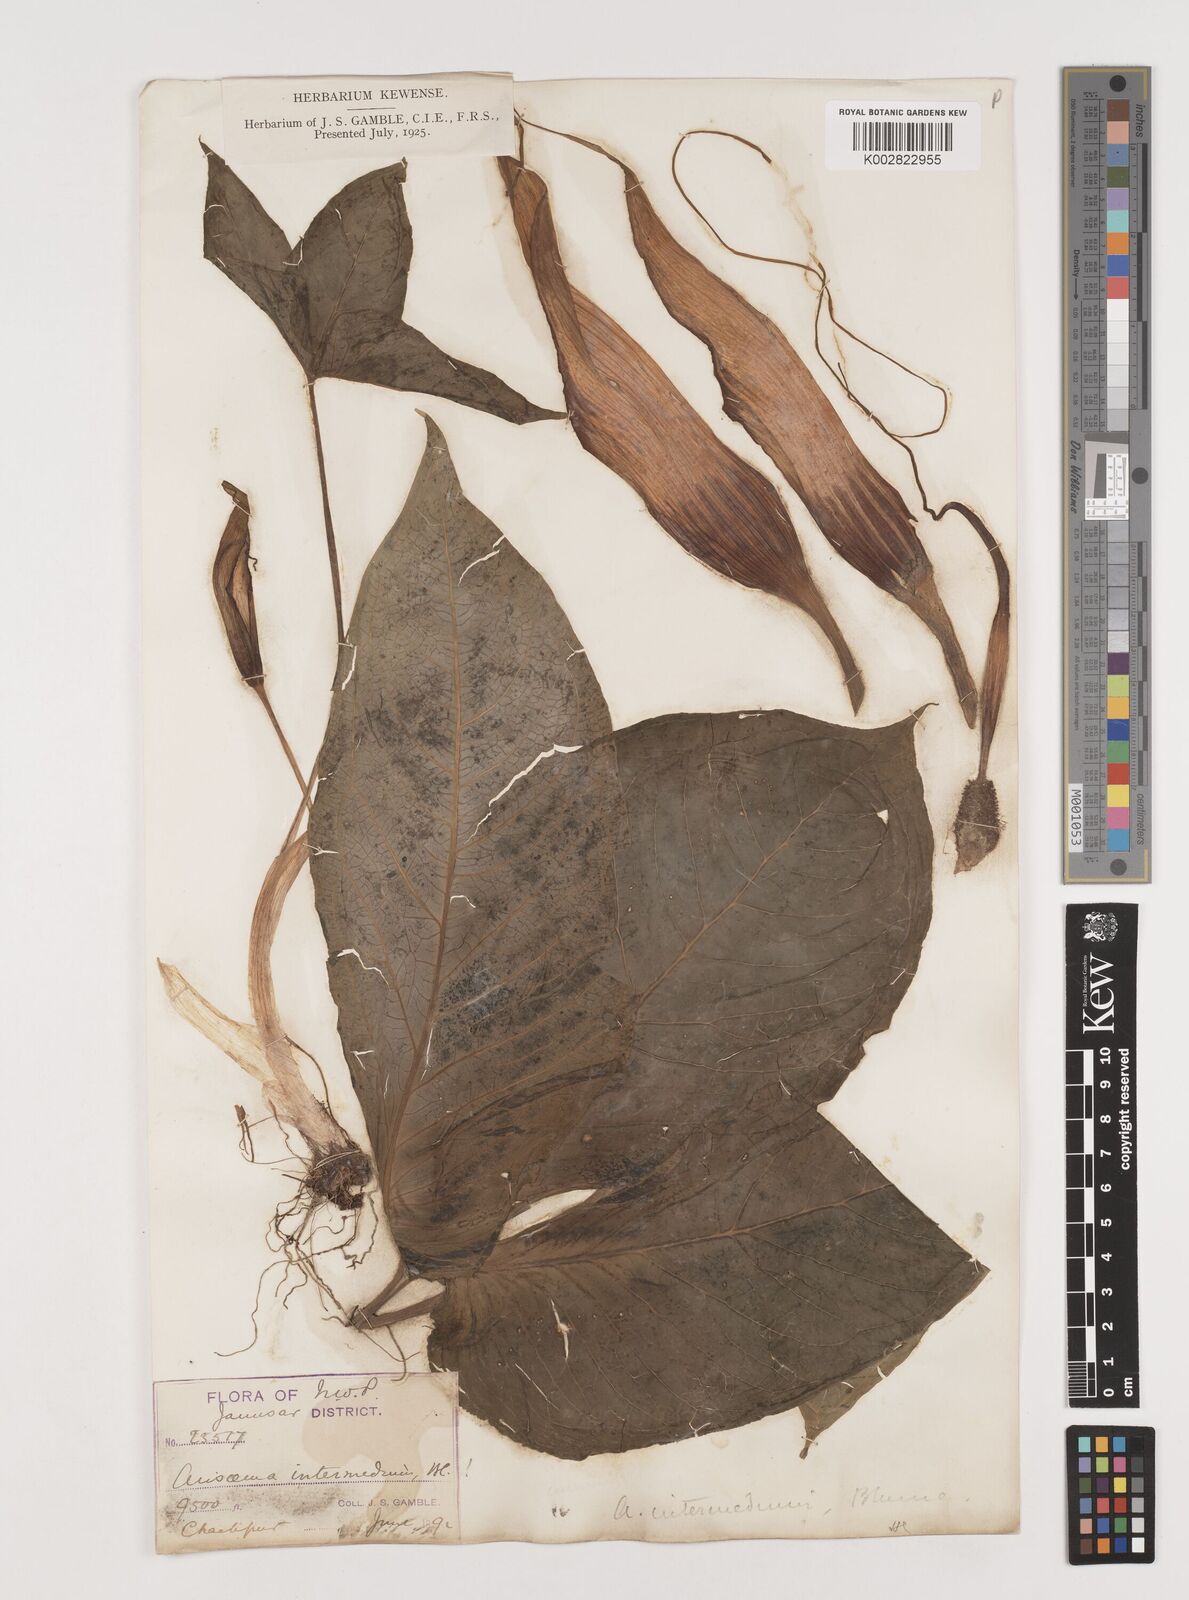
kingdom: Plantae
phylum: Tracheophyta
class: Liliopsida
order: Alismatales
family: Araceae
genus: Arisaema
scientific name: Arisaema intermedium
